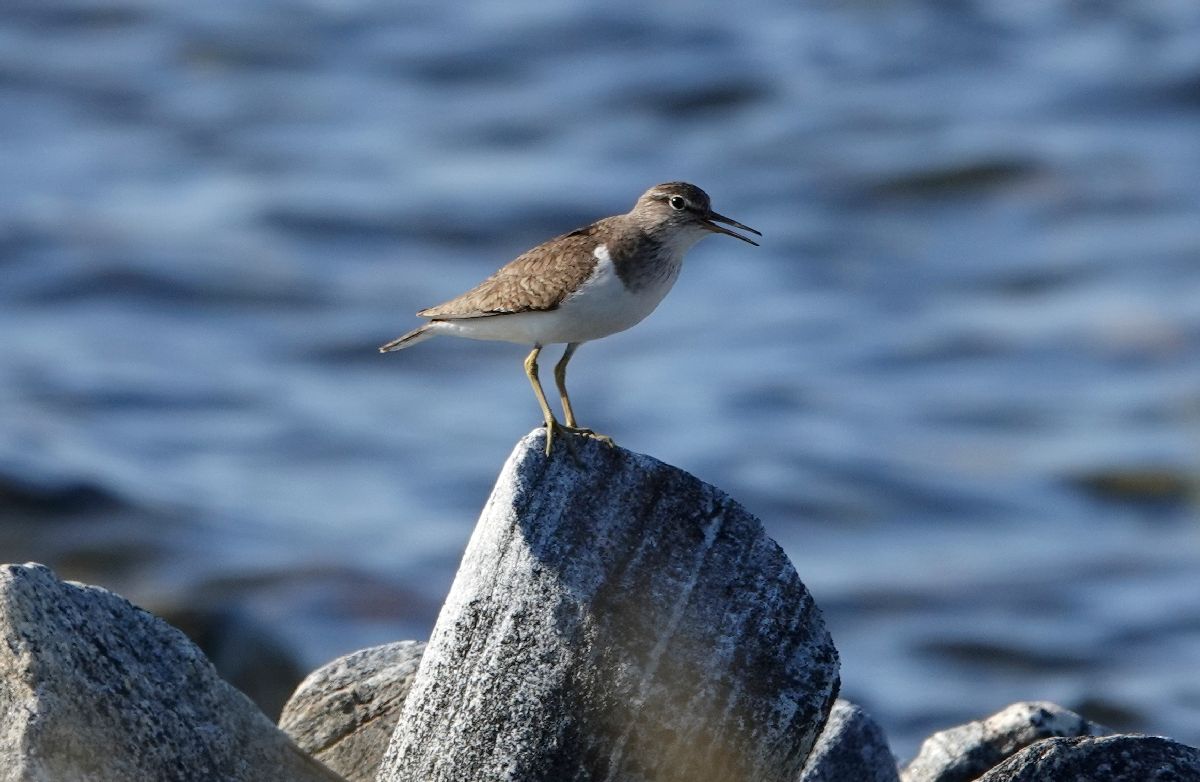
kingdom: Animalia
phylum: Chordata
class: Aves
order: Charadriiformes
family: Scolopacidae
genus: Actitis
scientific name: Actitis hypoleucos
